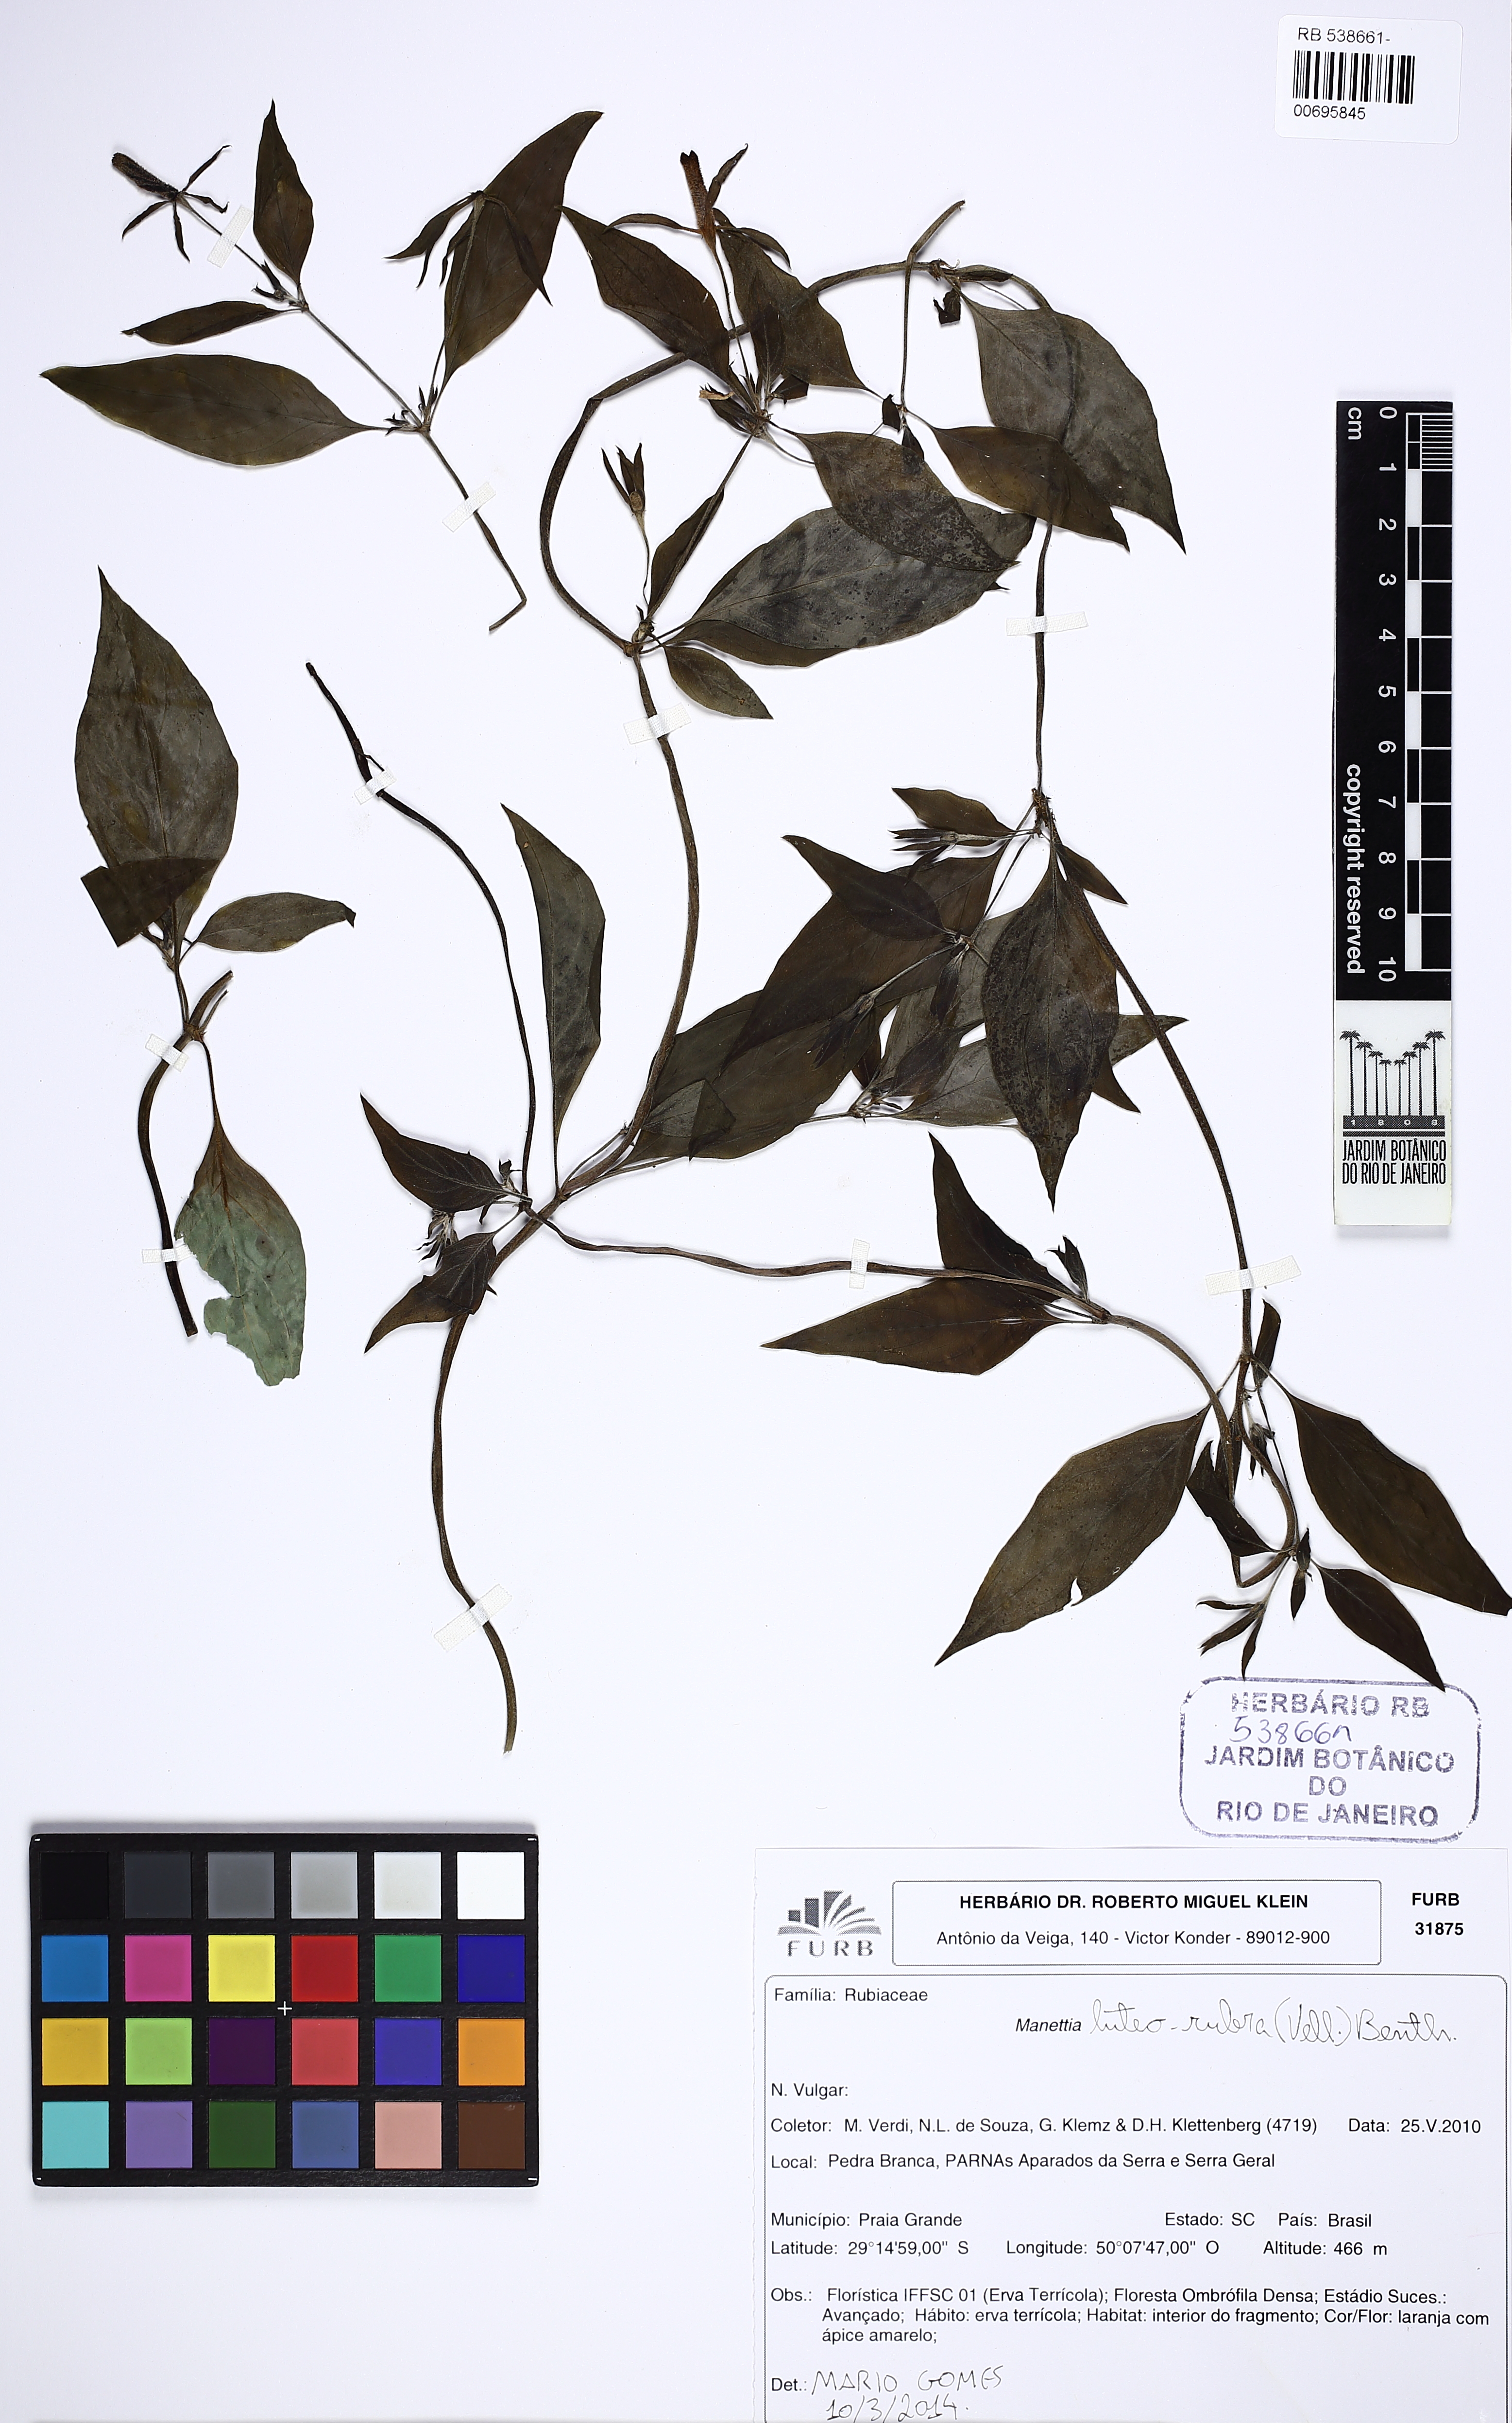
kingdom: Plantae
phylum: Tracheophyta
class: Magnoliopsida
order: Gentianales
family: Rubiaceae
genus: Manettia
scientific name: Manettia luteorubra
